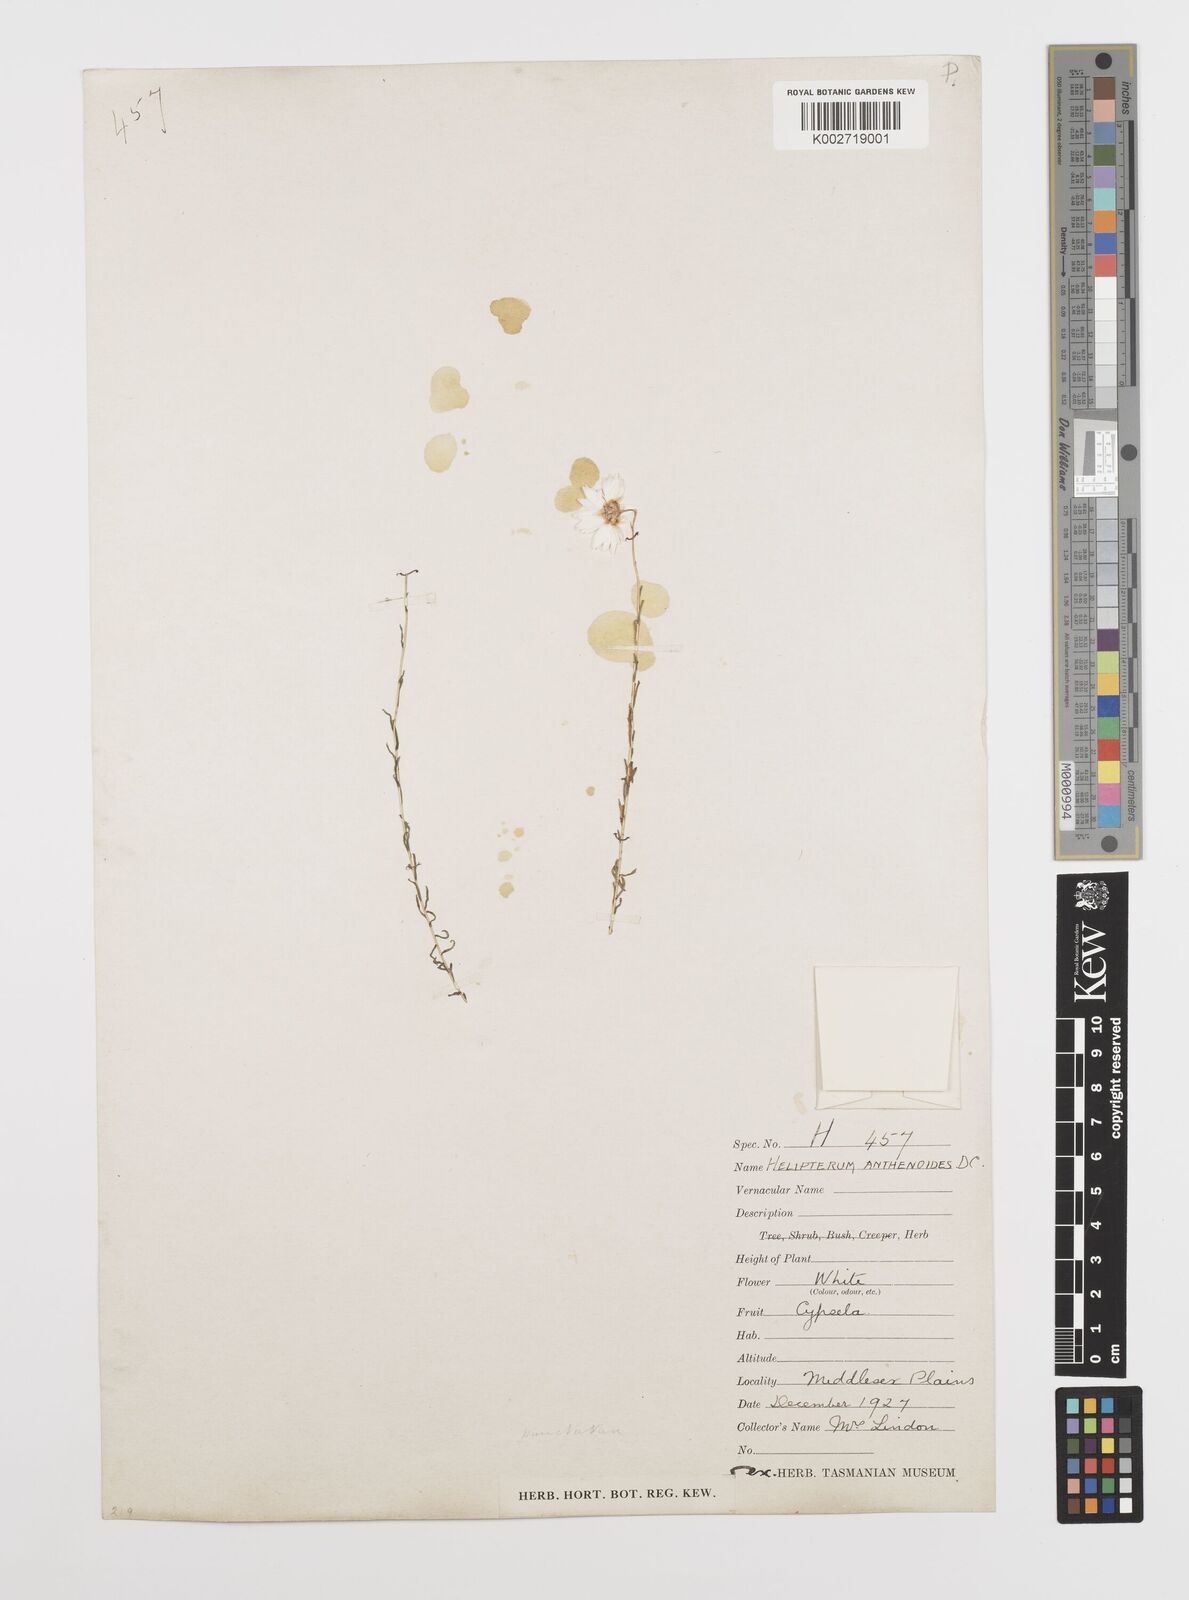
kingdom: Plantae
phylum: Tracheophyta
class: Magnoliopsida
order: Asterales
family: Asteraceae
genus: Rhodanthe
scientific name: Rhodanthe anthemoides
